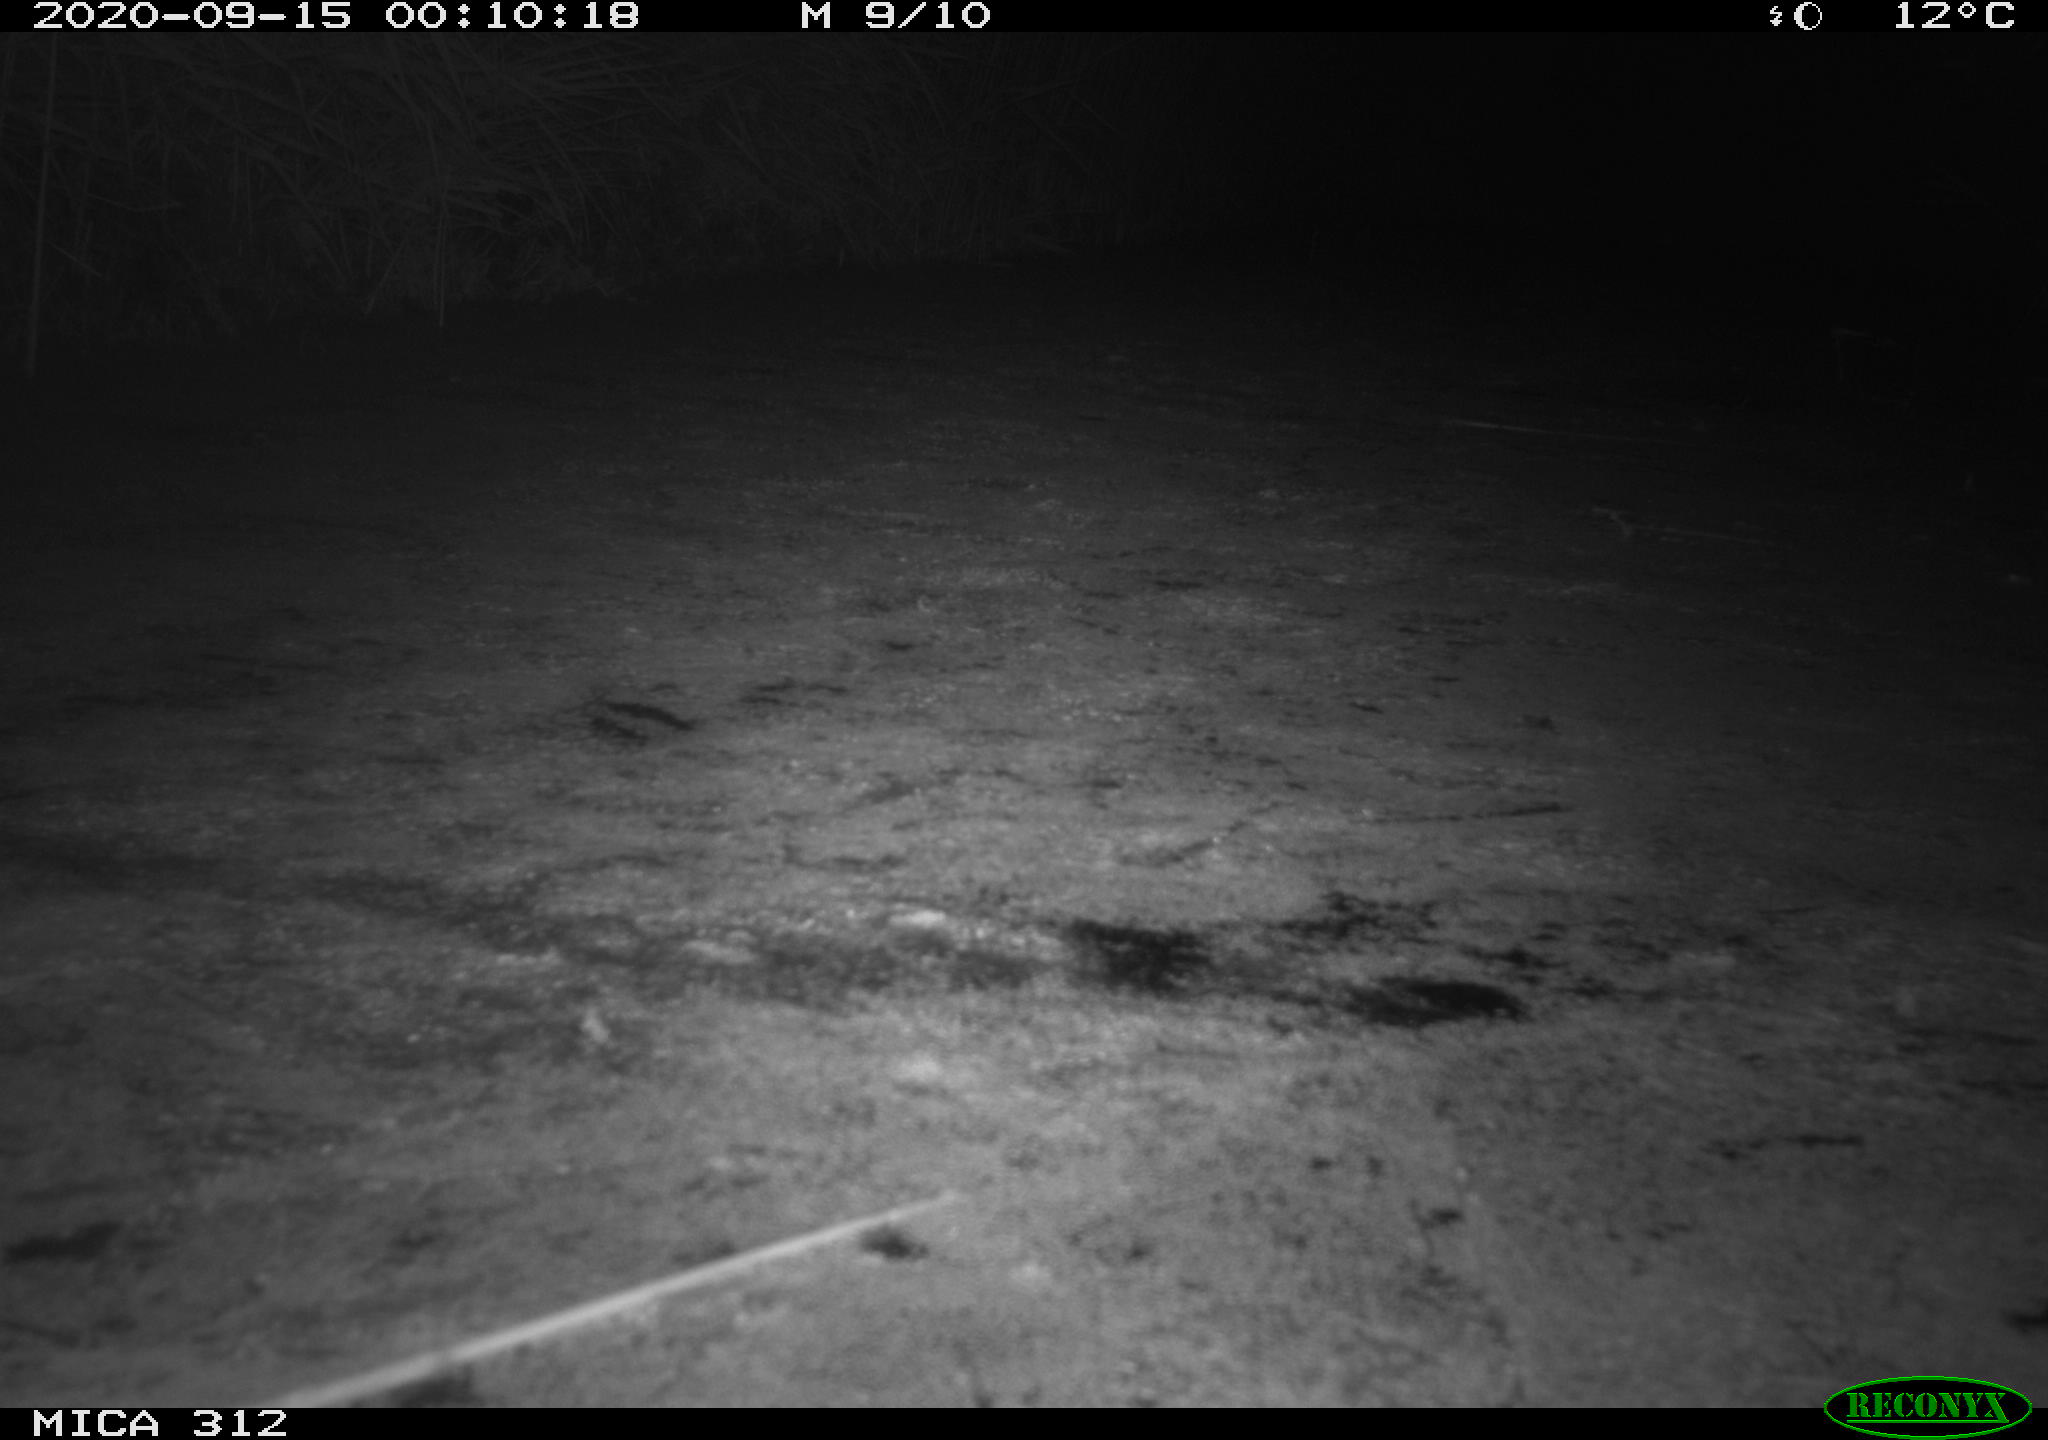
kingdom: Animalia
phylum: Chordata
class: Mammalia
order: Rodentia
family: Muridae
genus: Rattus
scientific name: Rattus norvegicus
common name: Brown rat
